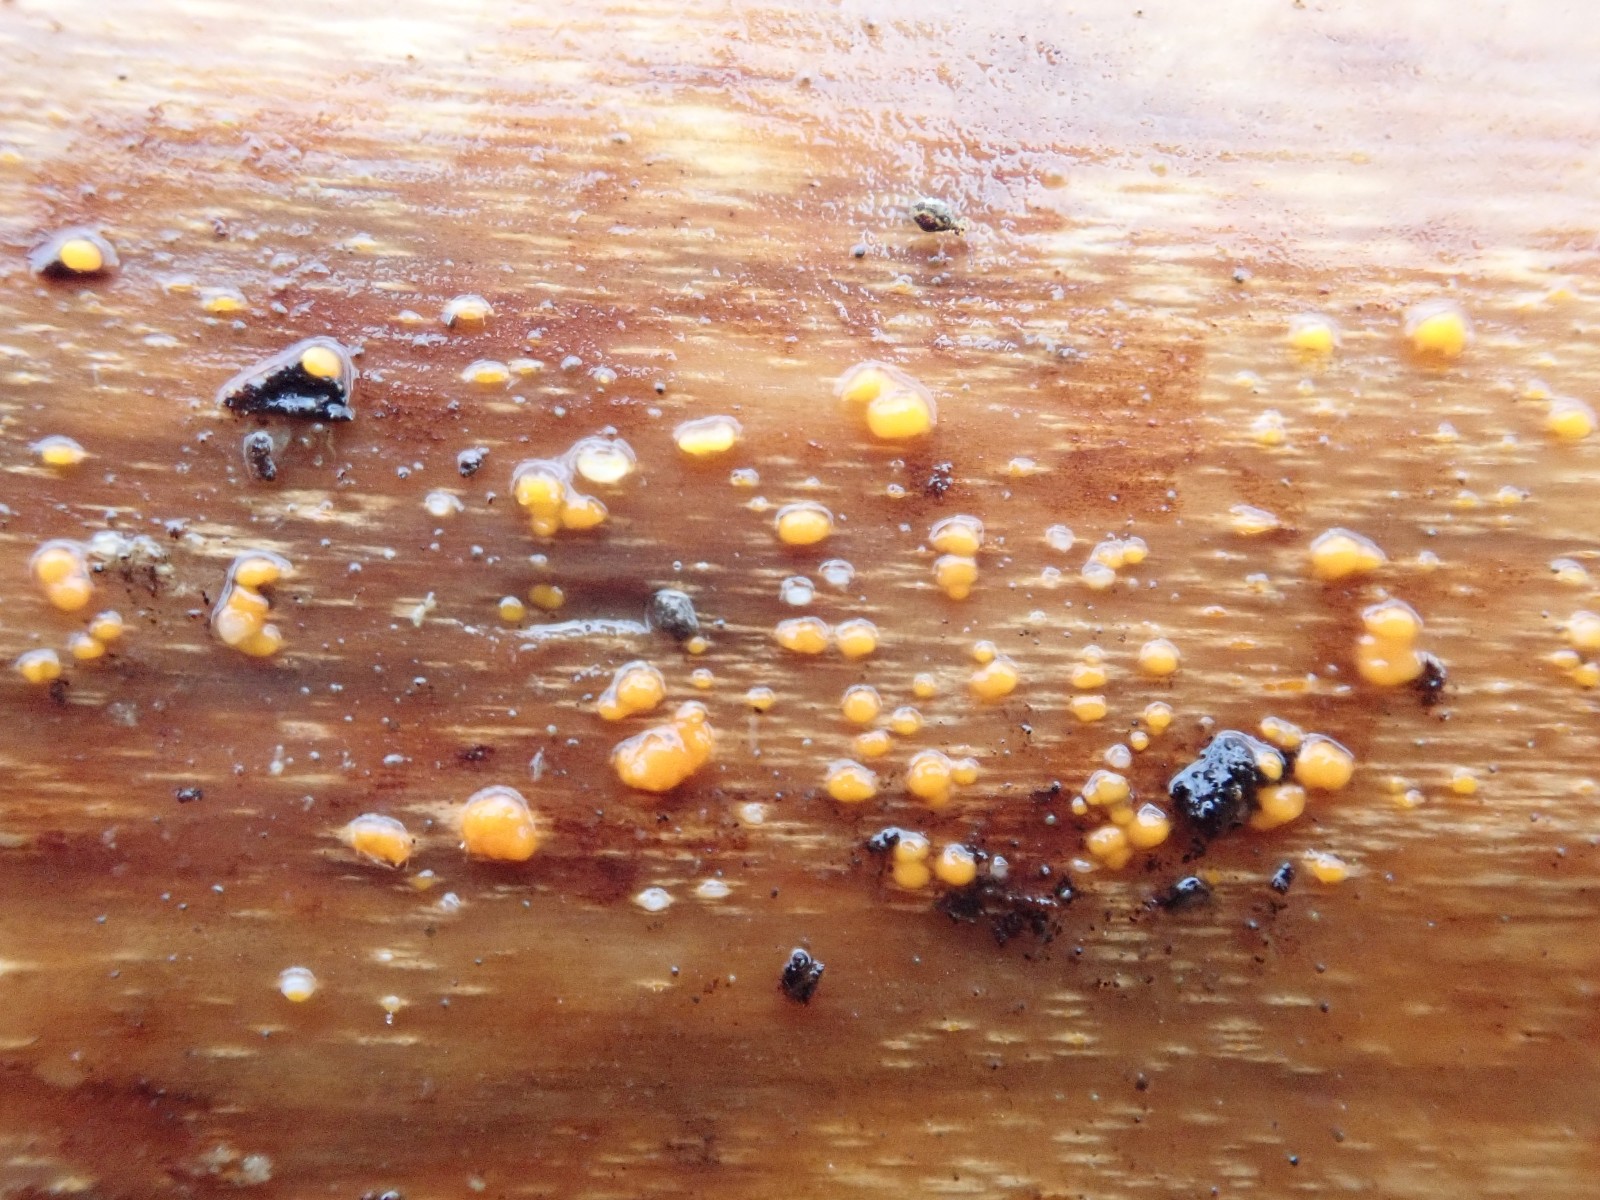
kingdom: Fungi
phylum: Basidiomycota
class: Dacrymycetes
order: Dacrymycetales
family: Dacrymycetaceae
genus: Dacrymyces
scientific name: Dacrymyces stillatus
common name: almindelig tåresvamp
